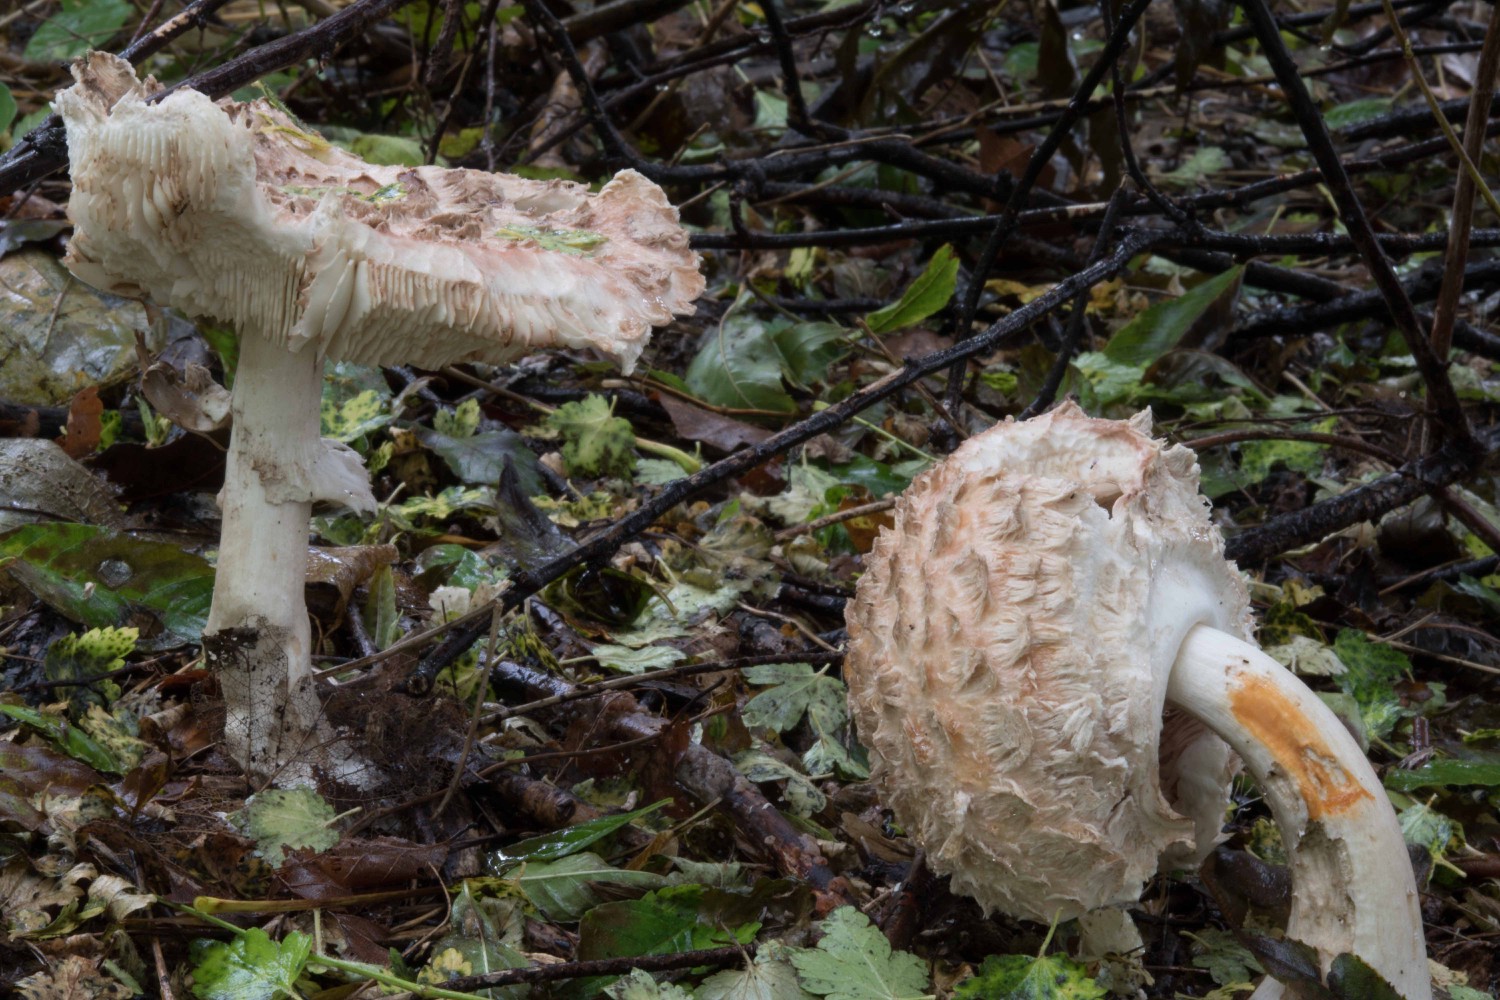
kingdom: Fungi
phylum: Basidiomycota
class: Agaricomycetes
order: Agaricales
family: Agaricaceae
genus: Chlorophyllum
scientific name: Chlorophyllum rhacodes
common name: ægte rabarberhat
